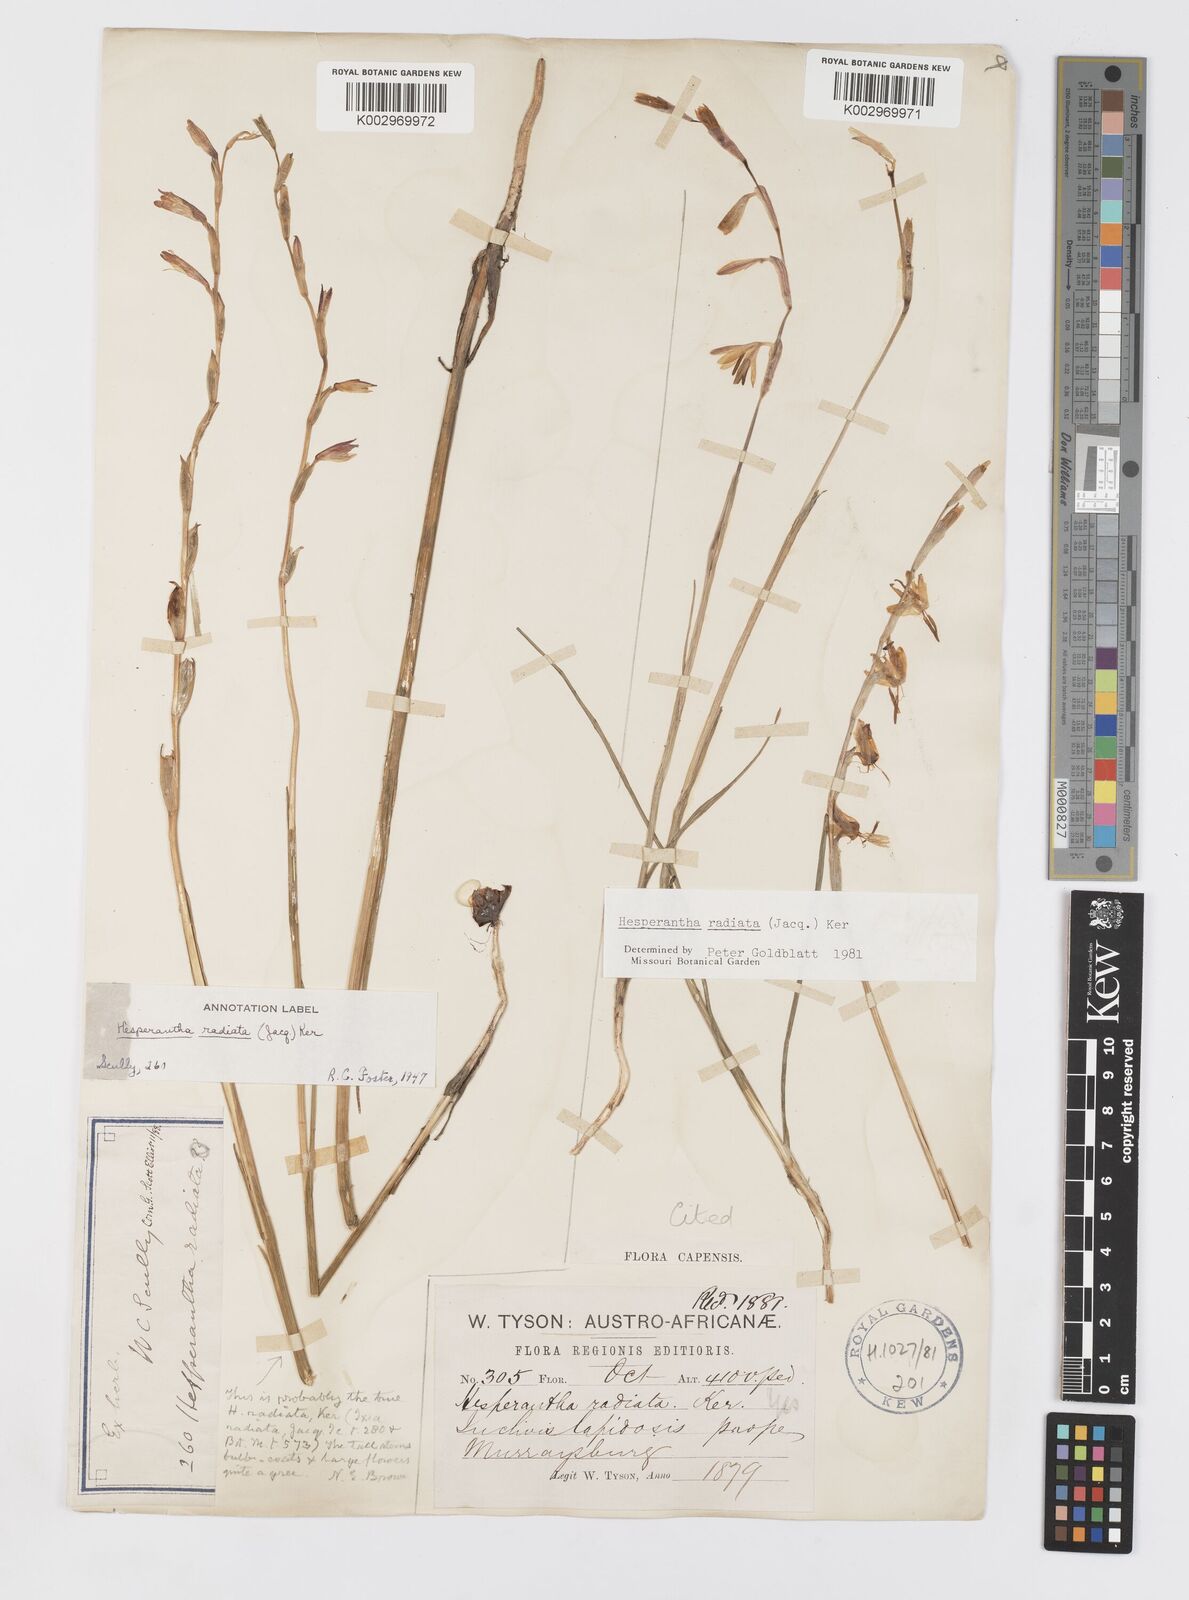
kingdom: Plantae
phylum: Tracheophyta
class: Liliopsida
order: Asparagales
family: Iridaceae
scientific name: Iridaceae
